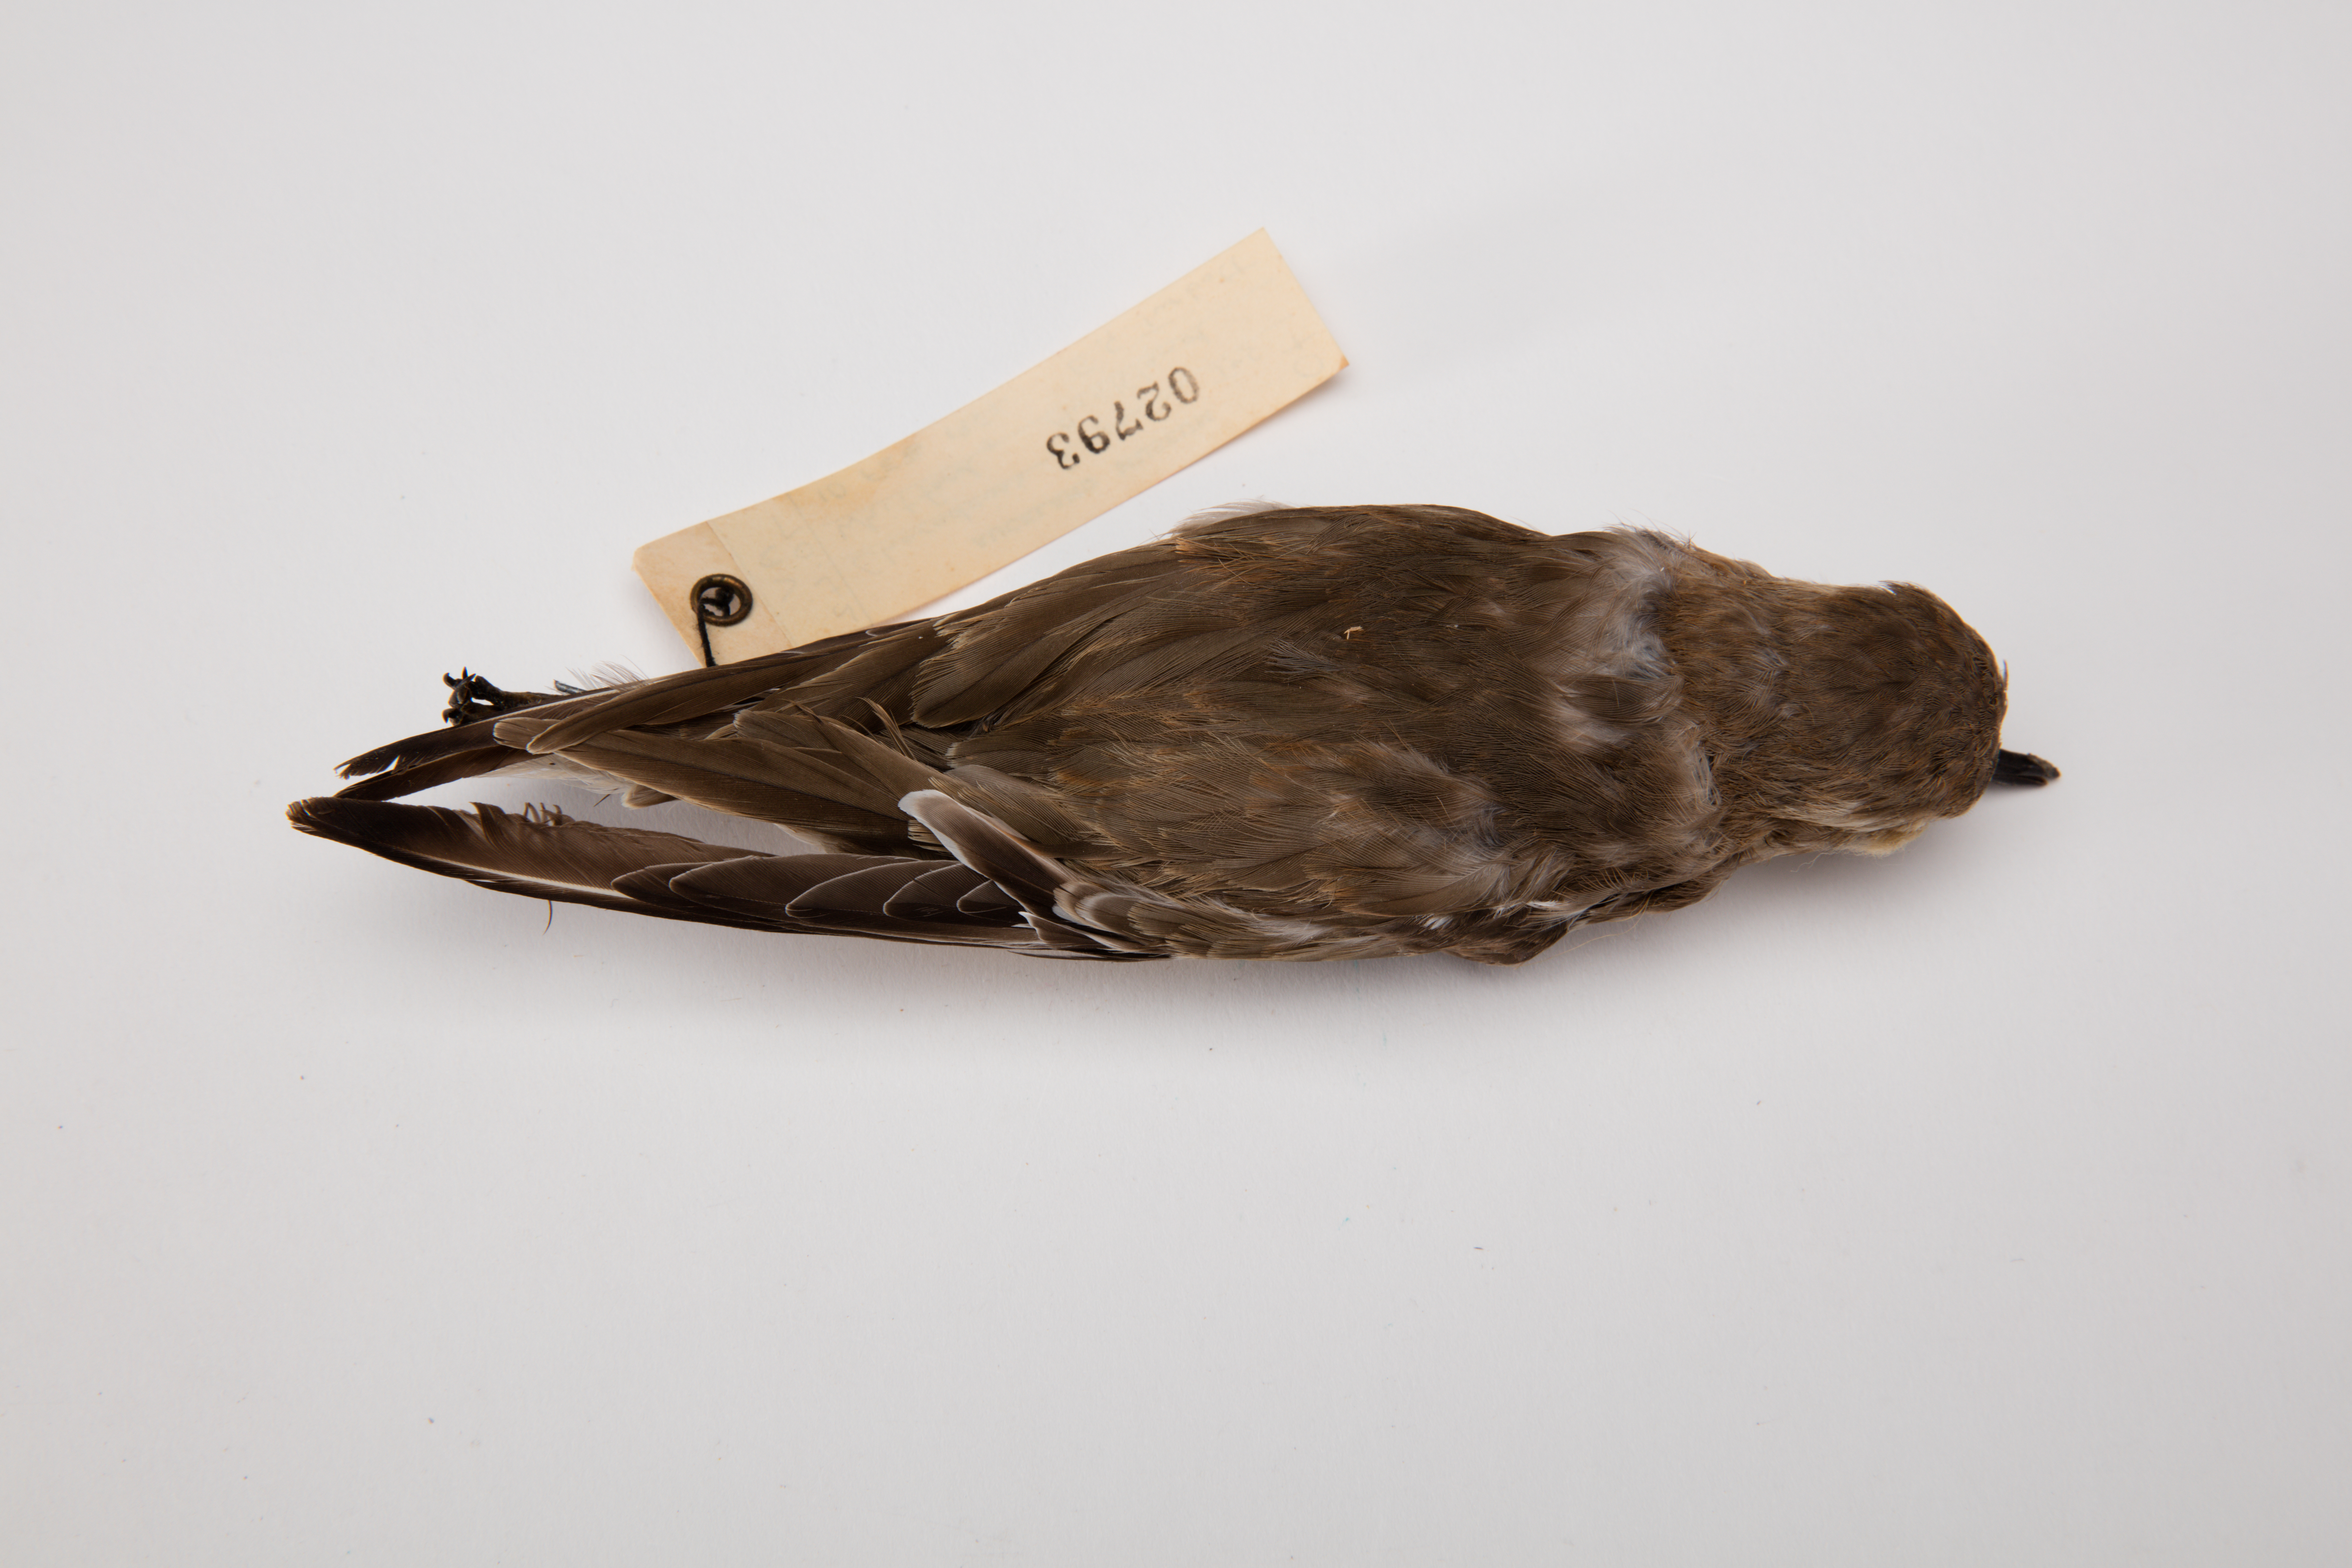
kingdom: Animalia
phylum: Chordata
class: Aves
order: Charadriiformes
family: Charadriidae
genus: Charadrius
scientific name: Charadrius bicinctus
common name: Double-banded plover
